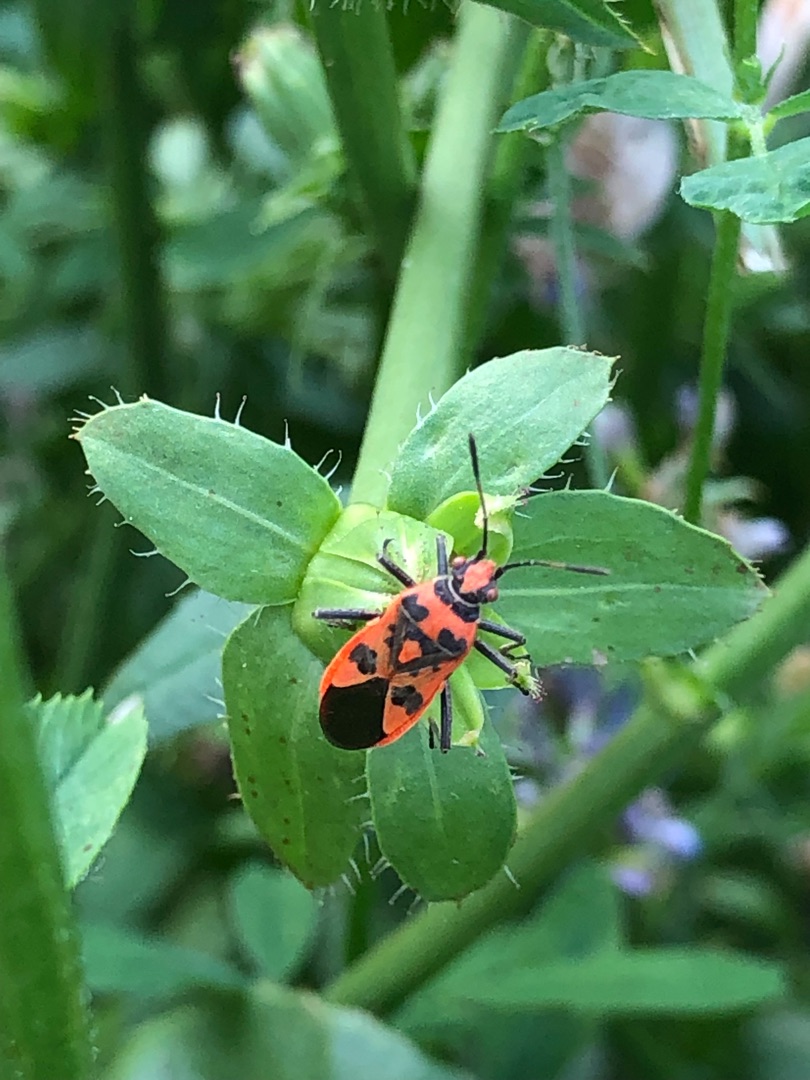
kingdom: Animalia
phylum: Arthropoda
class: Insecta
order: Hemiptera
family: Rhopalidae
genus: Corizus
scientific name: Corizus hyoscyami
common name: Rød kanttæge
